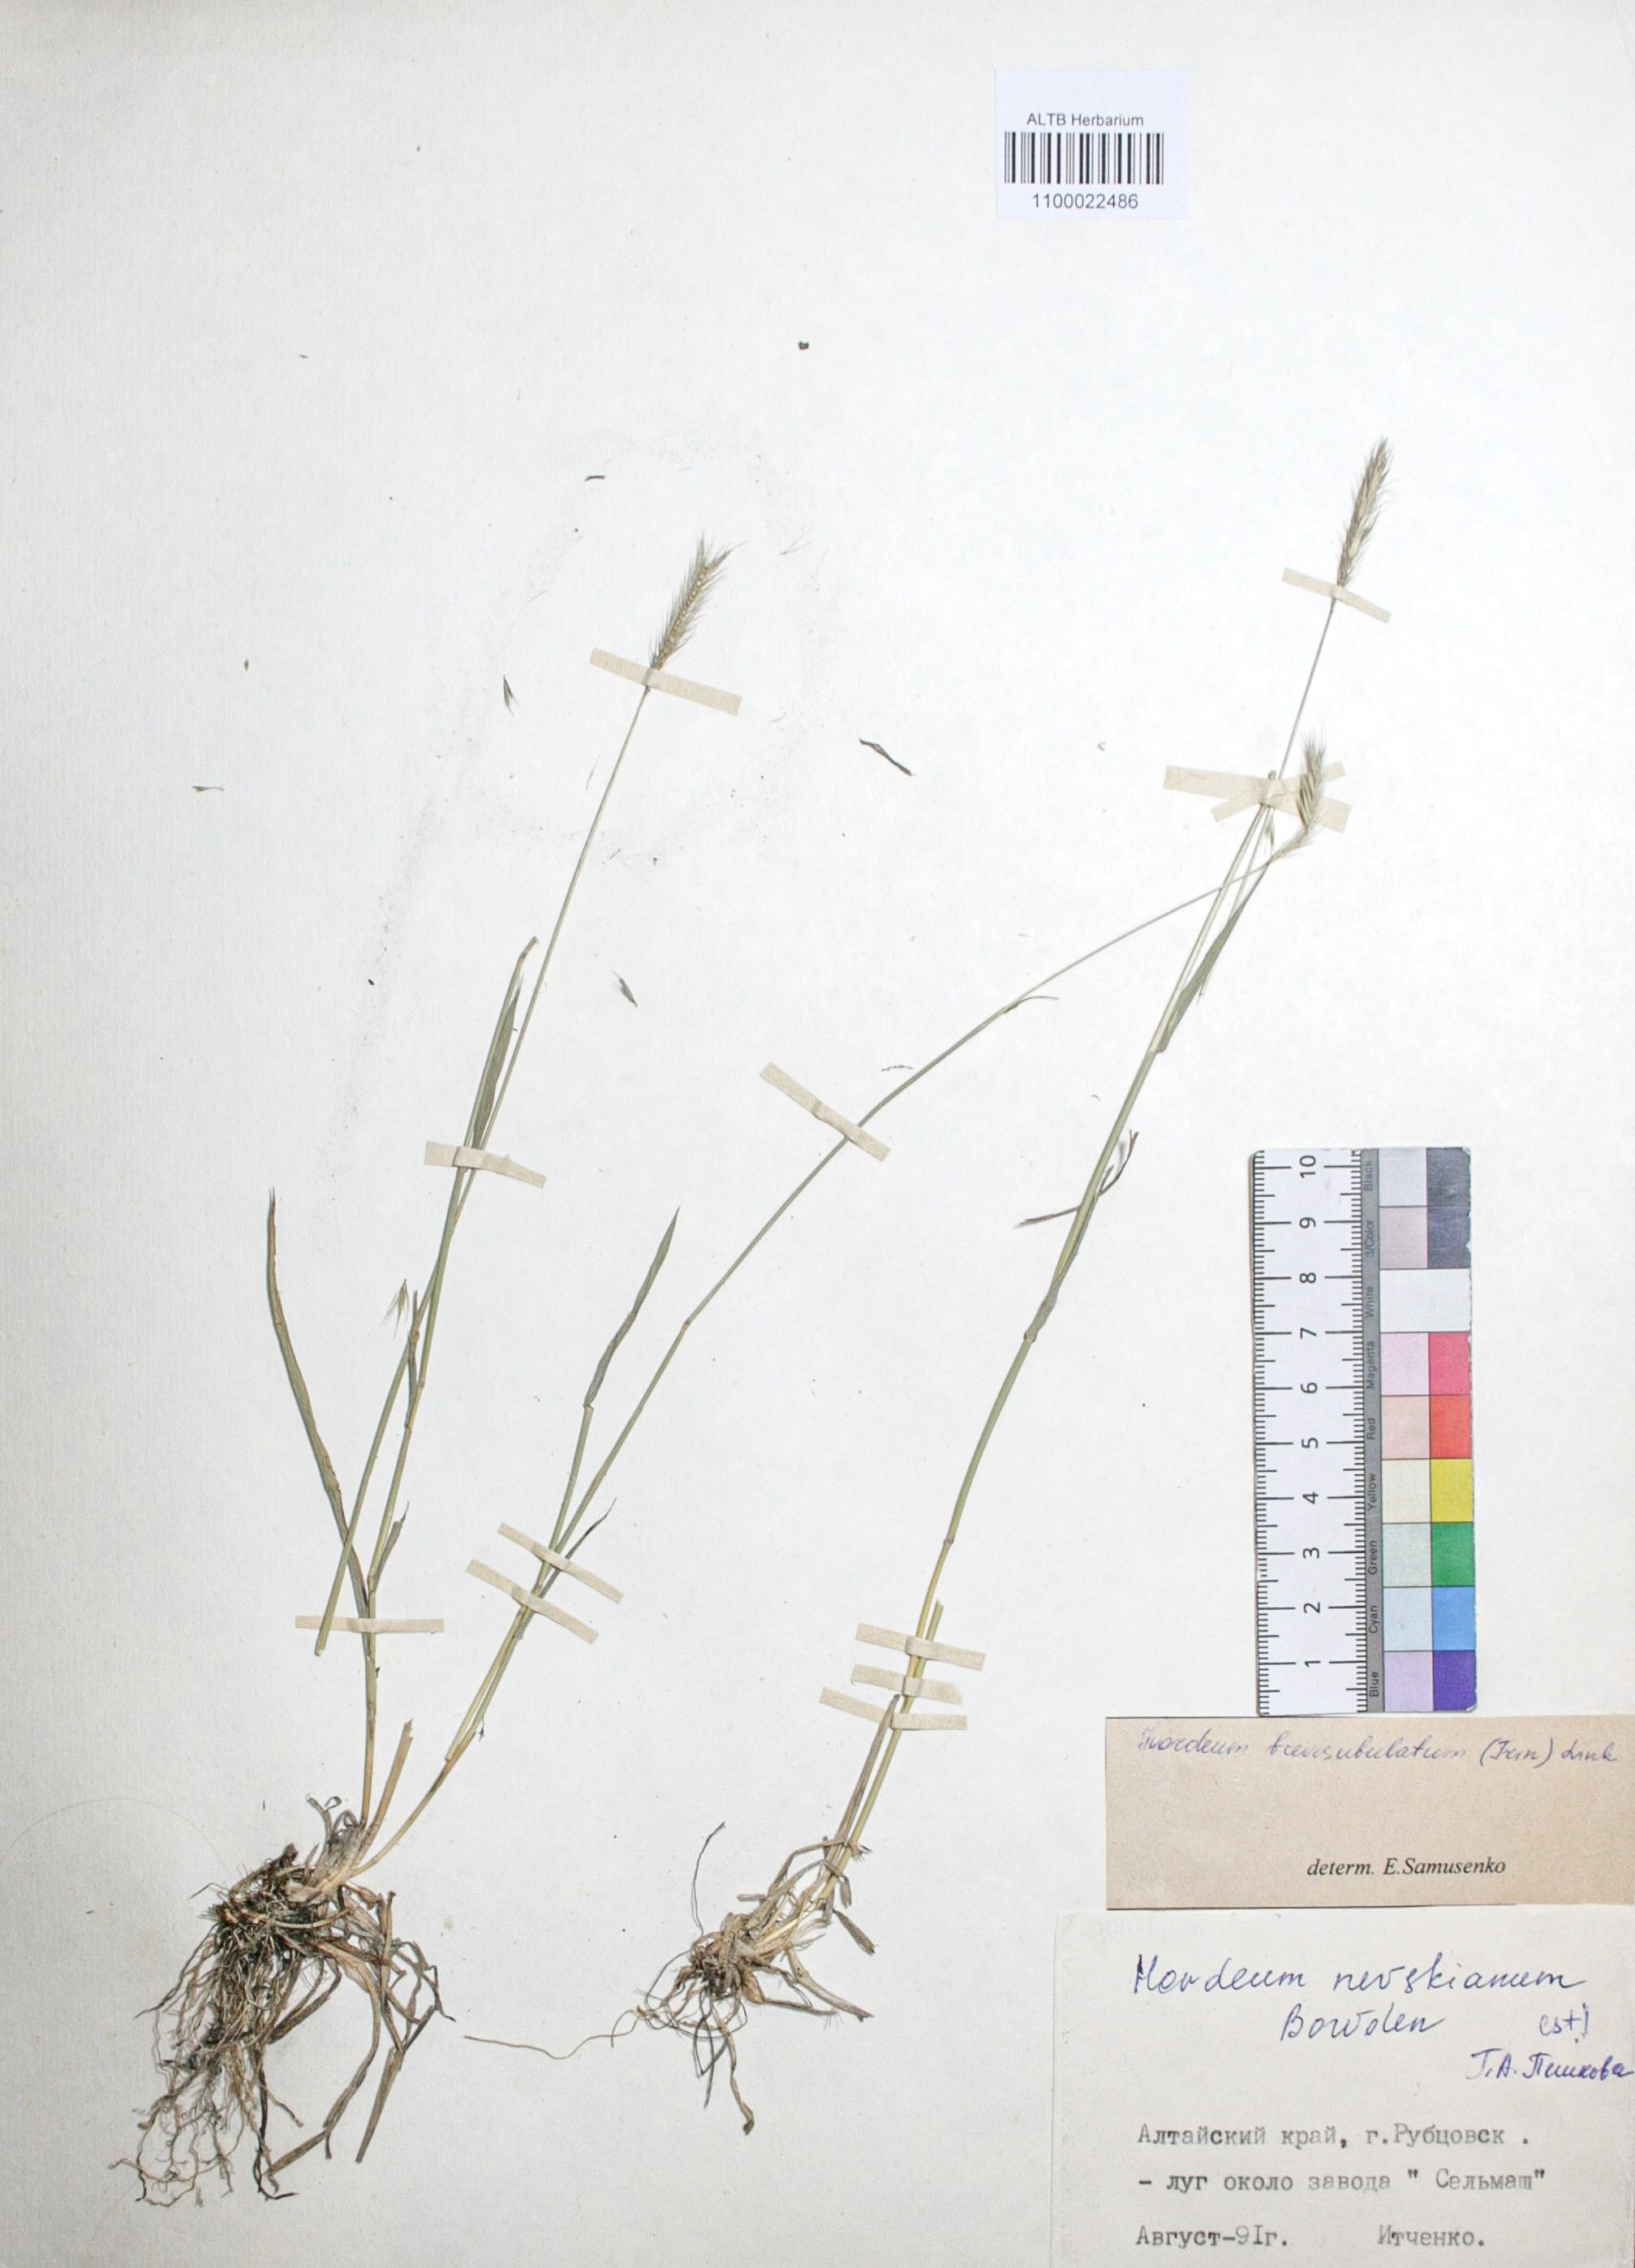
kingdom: Plantae
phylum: Tracheophyta
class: Liliopsida
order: Poales
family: Poaceae
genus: Hordeum
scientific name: Hordeum brevisubulatum
